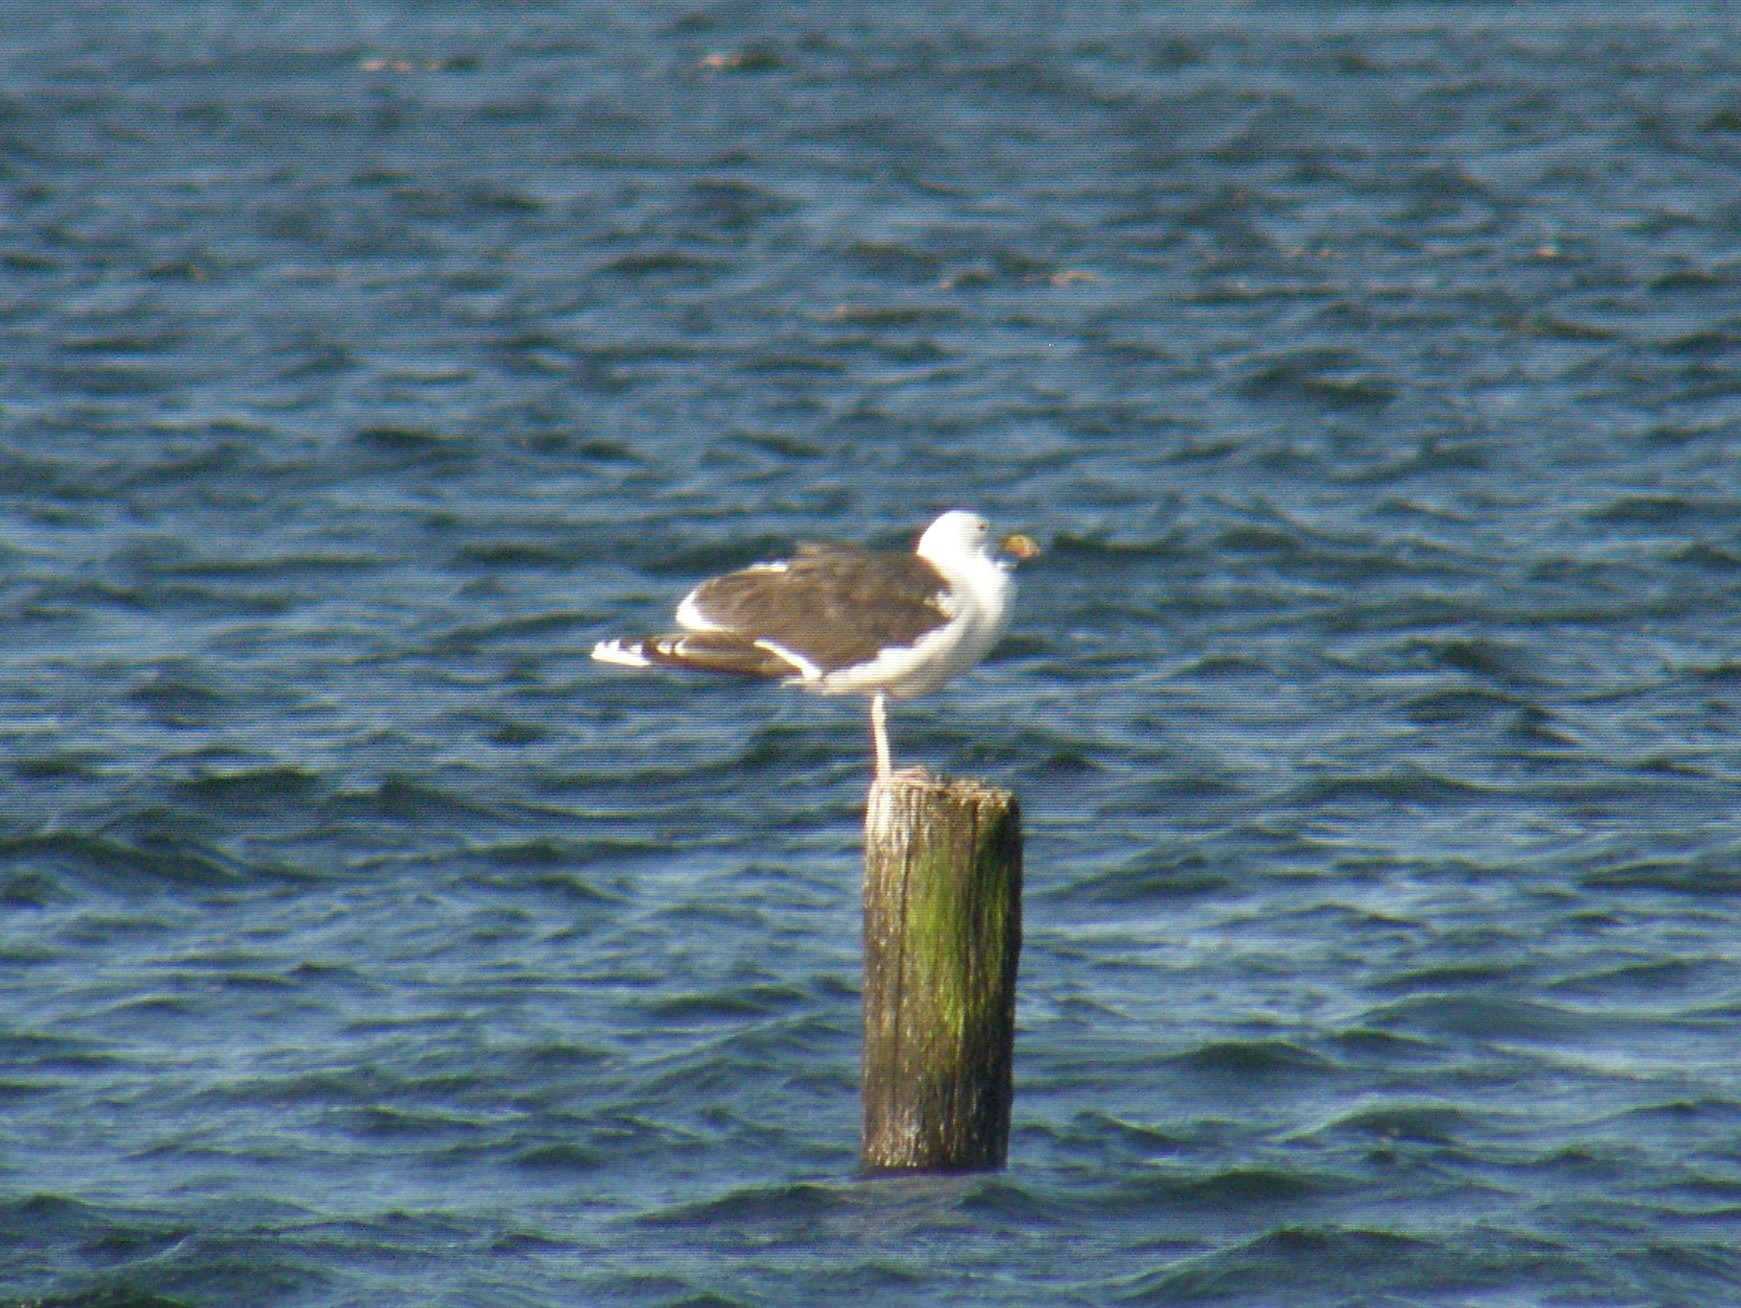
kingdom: Animalia
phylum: Chordata
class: Aves
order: Charadriiformes
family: Laridae
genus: Larus
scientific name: Larus marinus
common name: Svartbag
